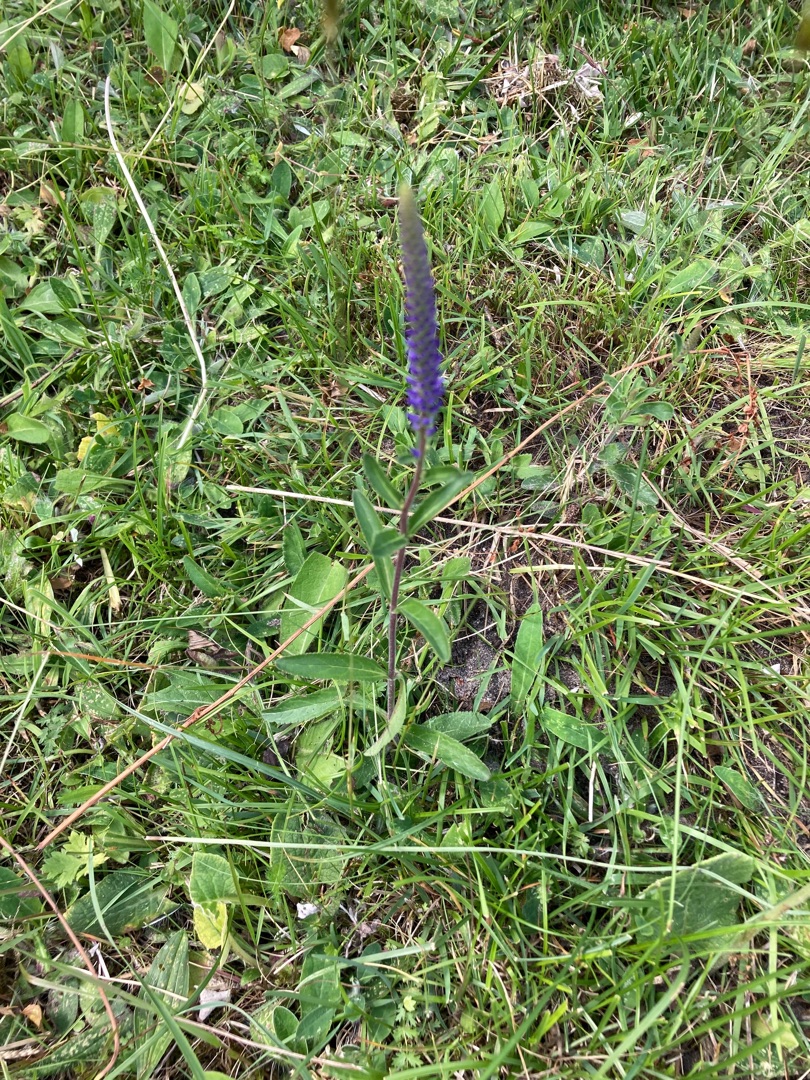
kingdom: Plantae
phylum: Tracheophyta
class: Magnoliopsida
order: Lamiales
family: Plantaginaceae
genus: Veronica
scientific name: Veronica spicata
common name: Aks-ærenpris
